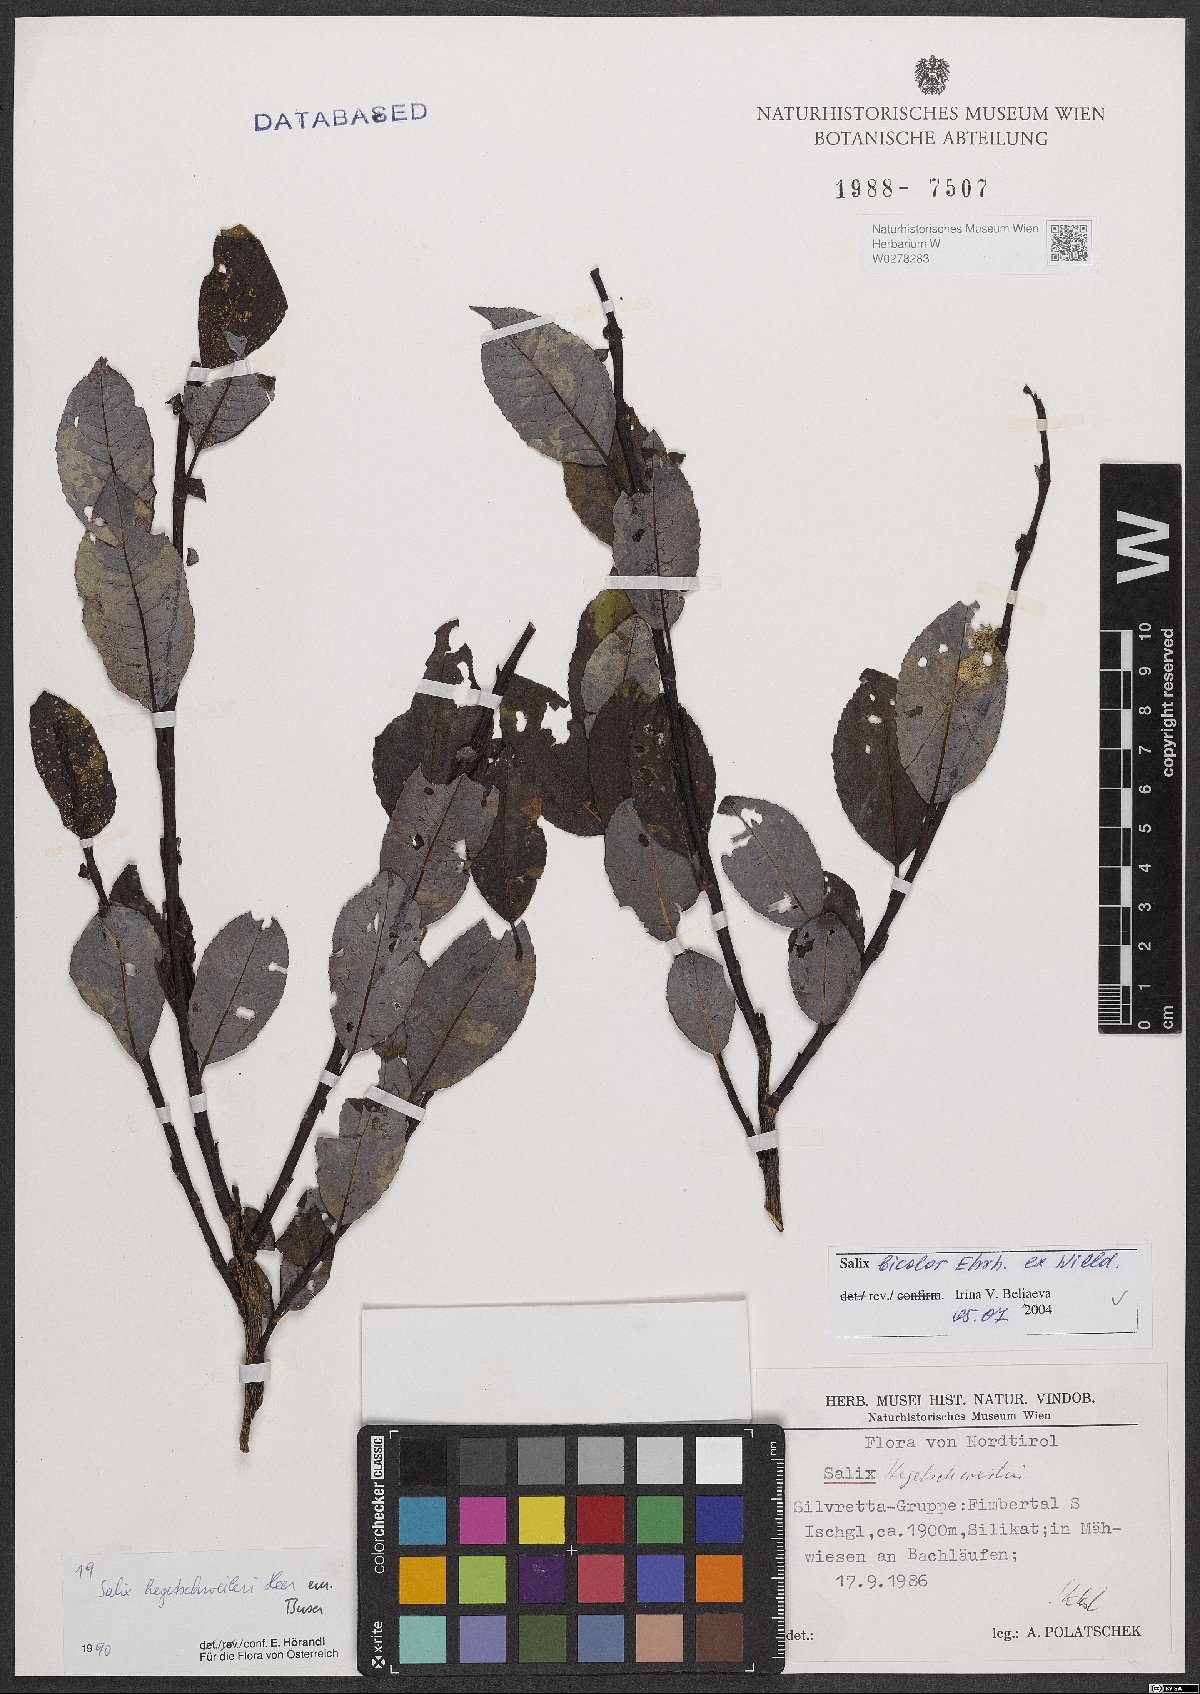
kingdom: Plantae
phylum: Tracheophyta
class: Magnoliopsida
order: Malpighiales
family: Salicaceae
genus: Salix
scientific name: Salix bicolor
